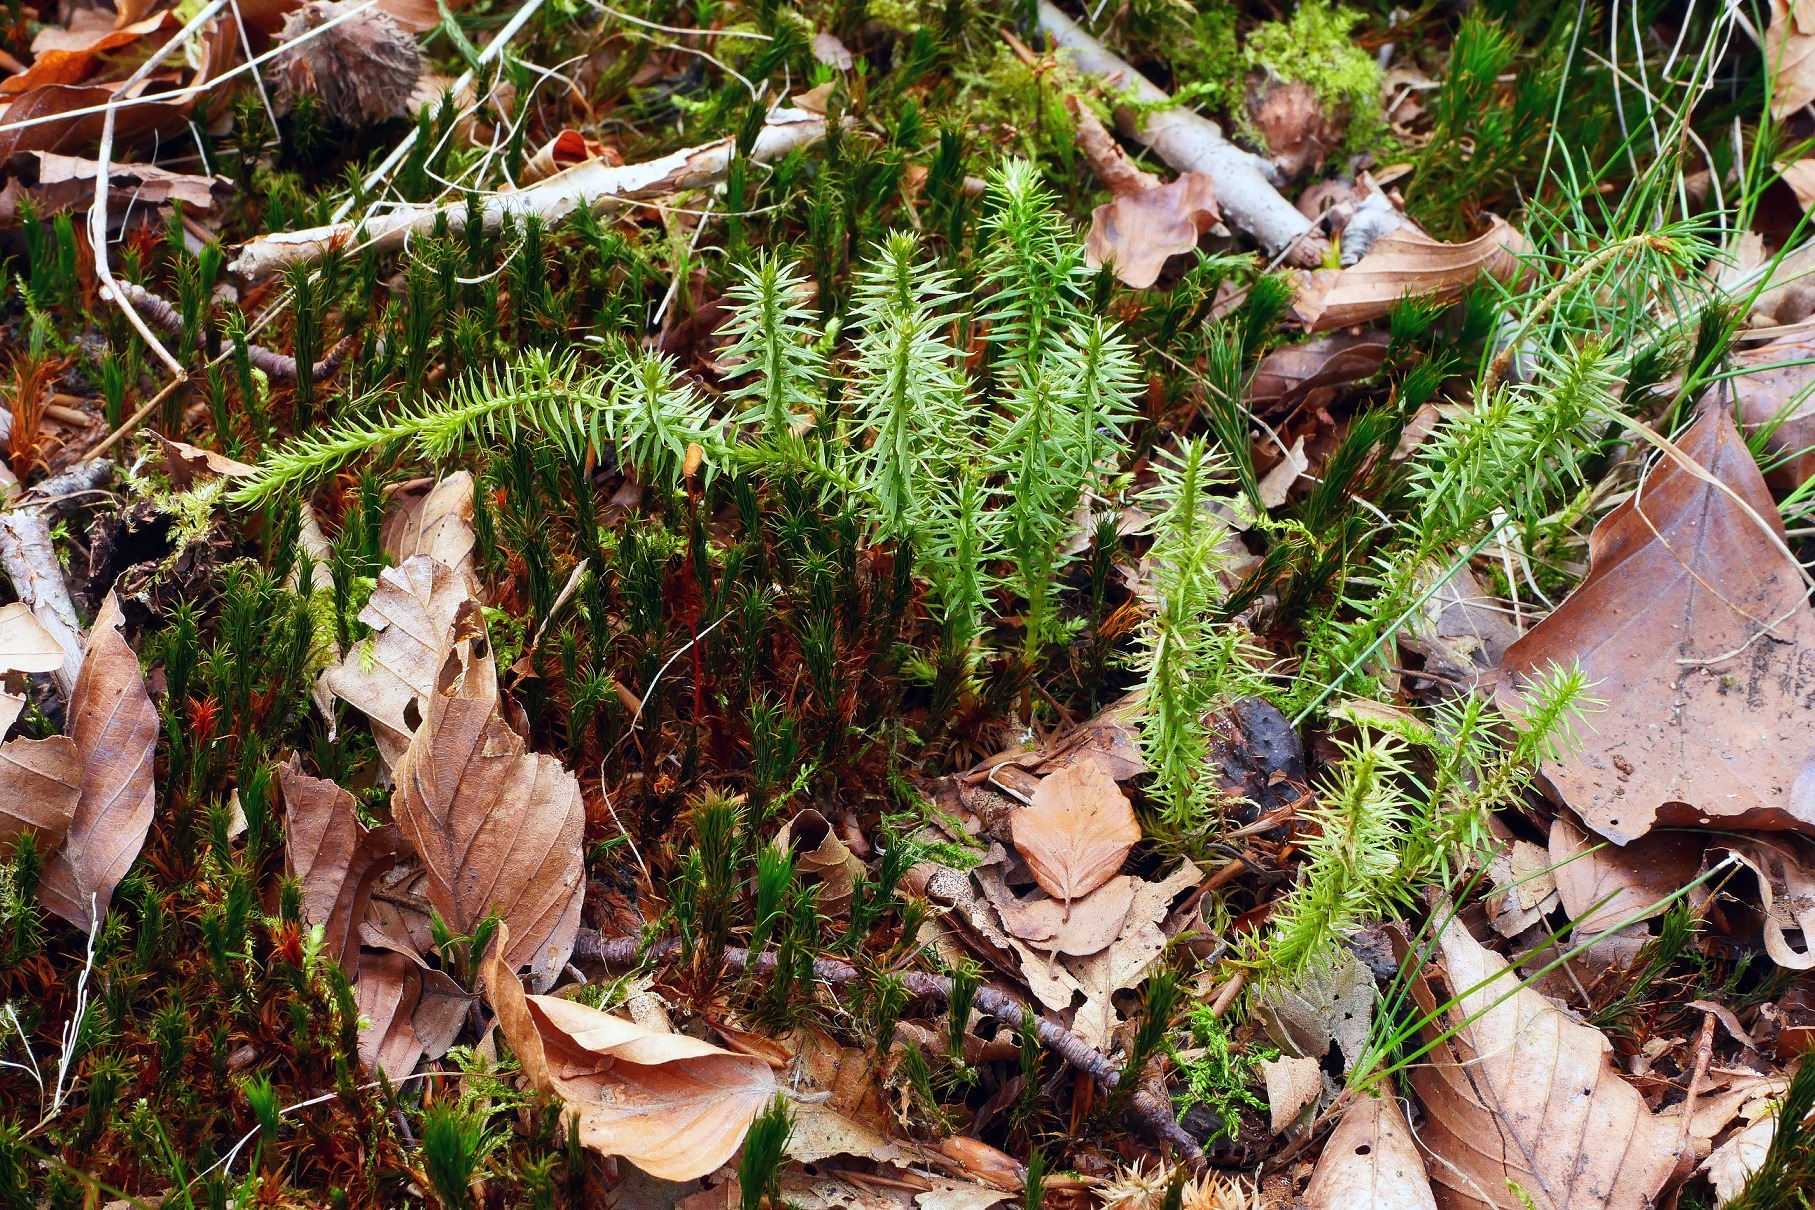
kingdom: Plantae
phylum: Tracheophyta
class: Lycopodiopsida
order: Lycopodiales
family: Lycopodiaceae
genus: Spinulum
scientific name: Spinulum annotinum
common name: Femradet ulvefod
